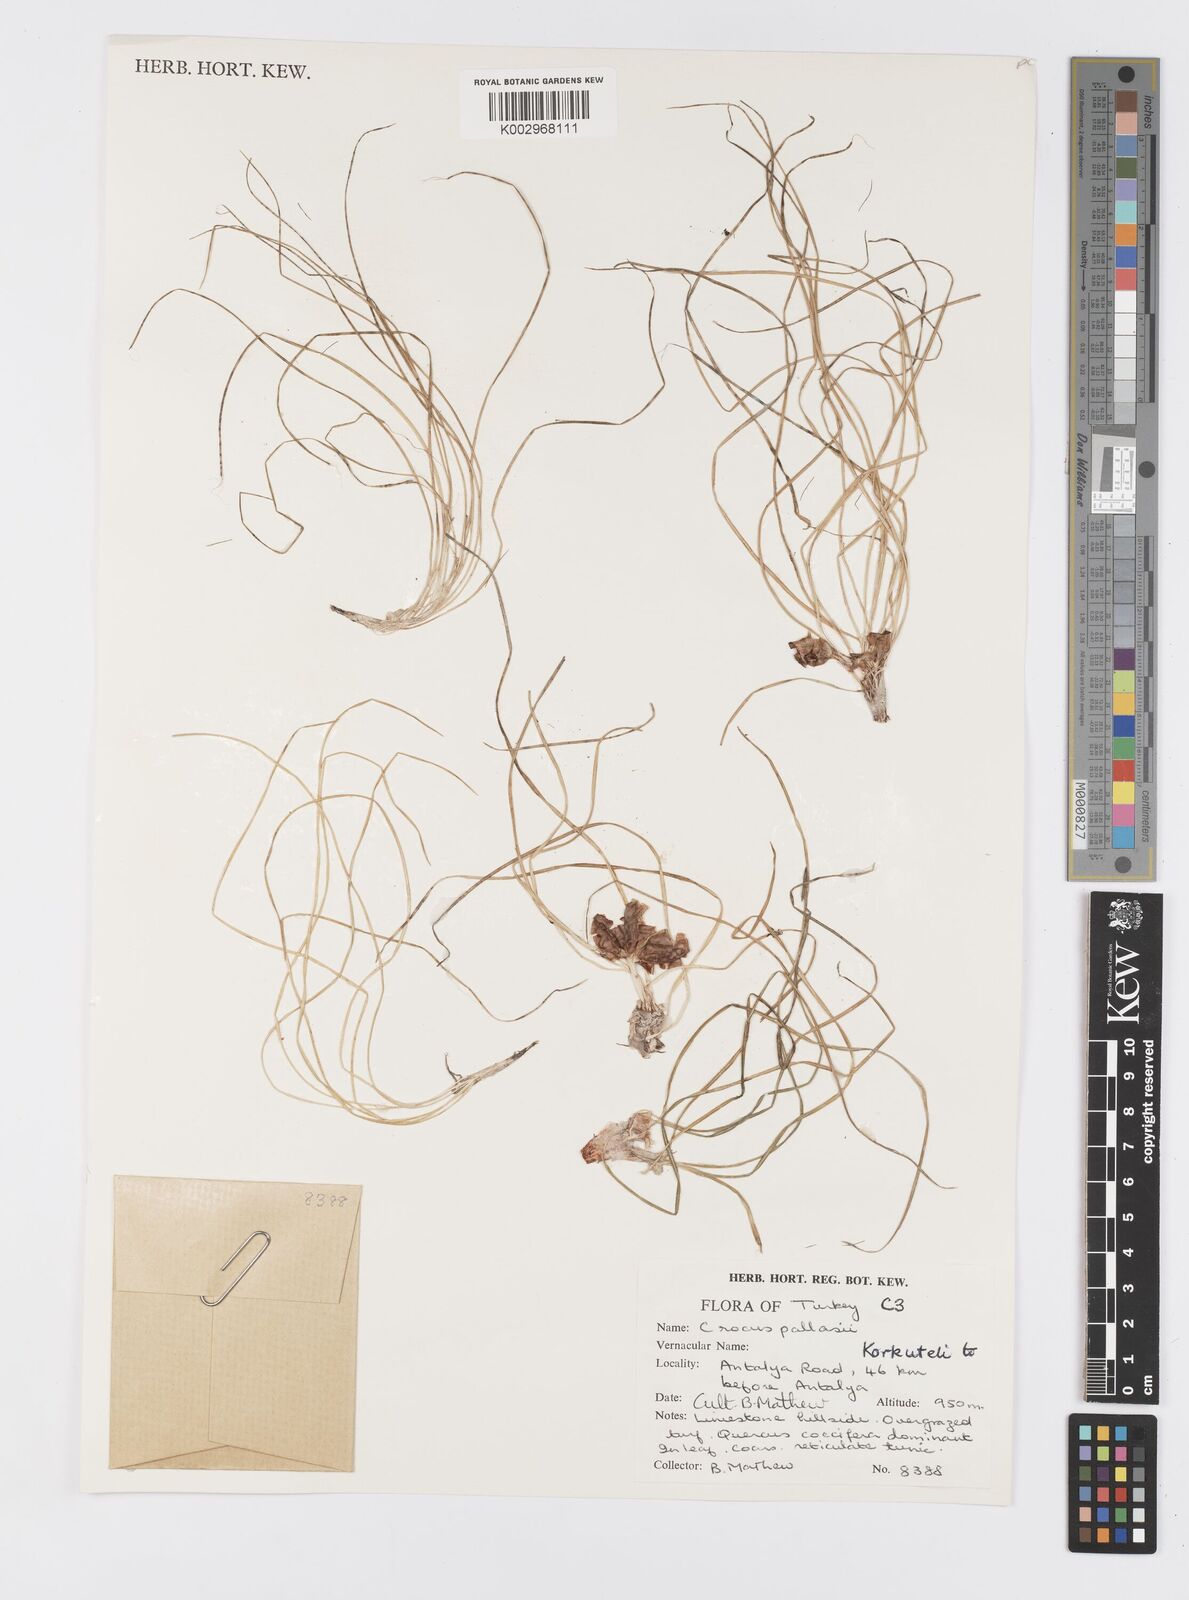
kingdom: Plantae
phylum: Tracheophyta
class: Liliopsida
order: Asparagales
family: Iridaceae
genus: Crocus
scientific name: Crocus
